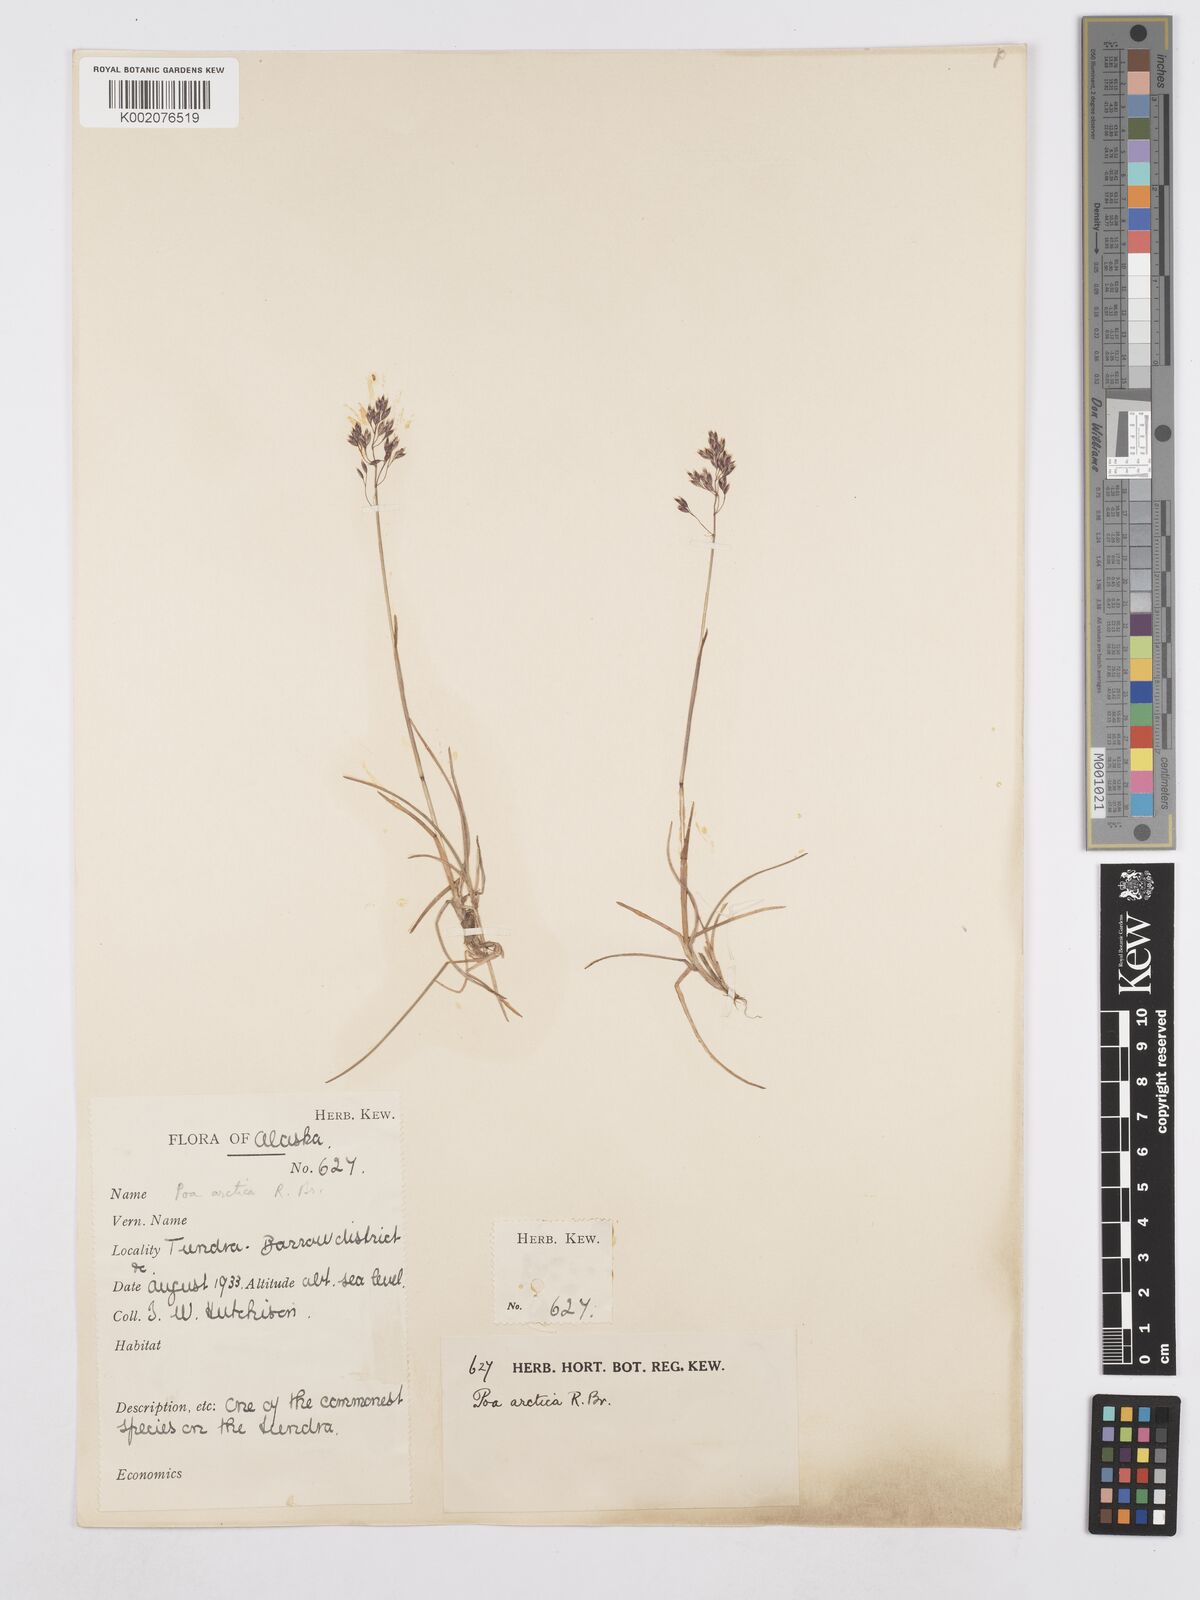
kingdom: Plantae
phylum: Tracheophyta
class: Liliopsida
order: Poales
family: Poaceae
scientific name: Poaceae
